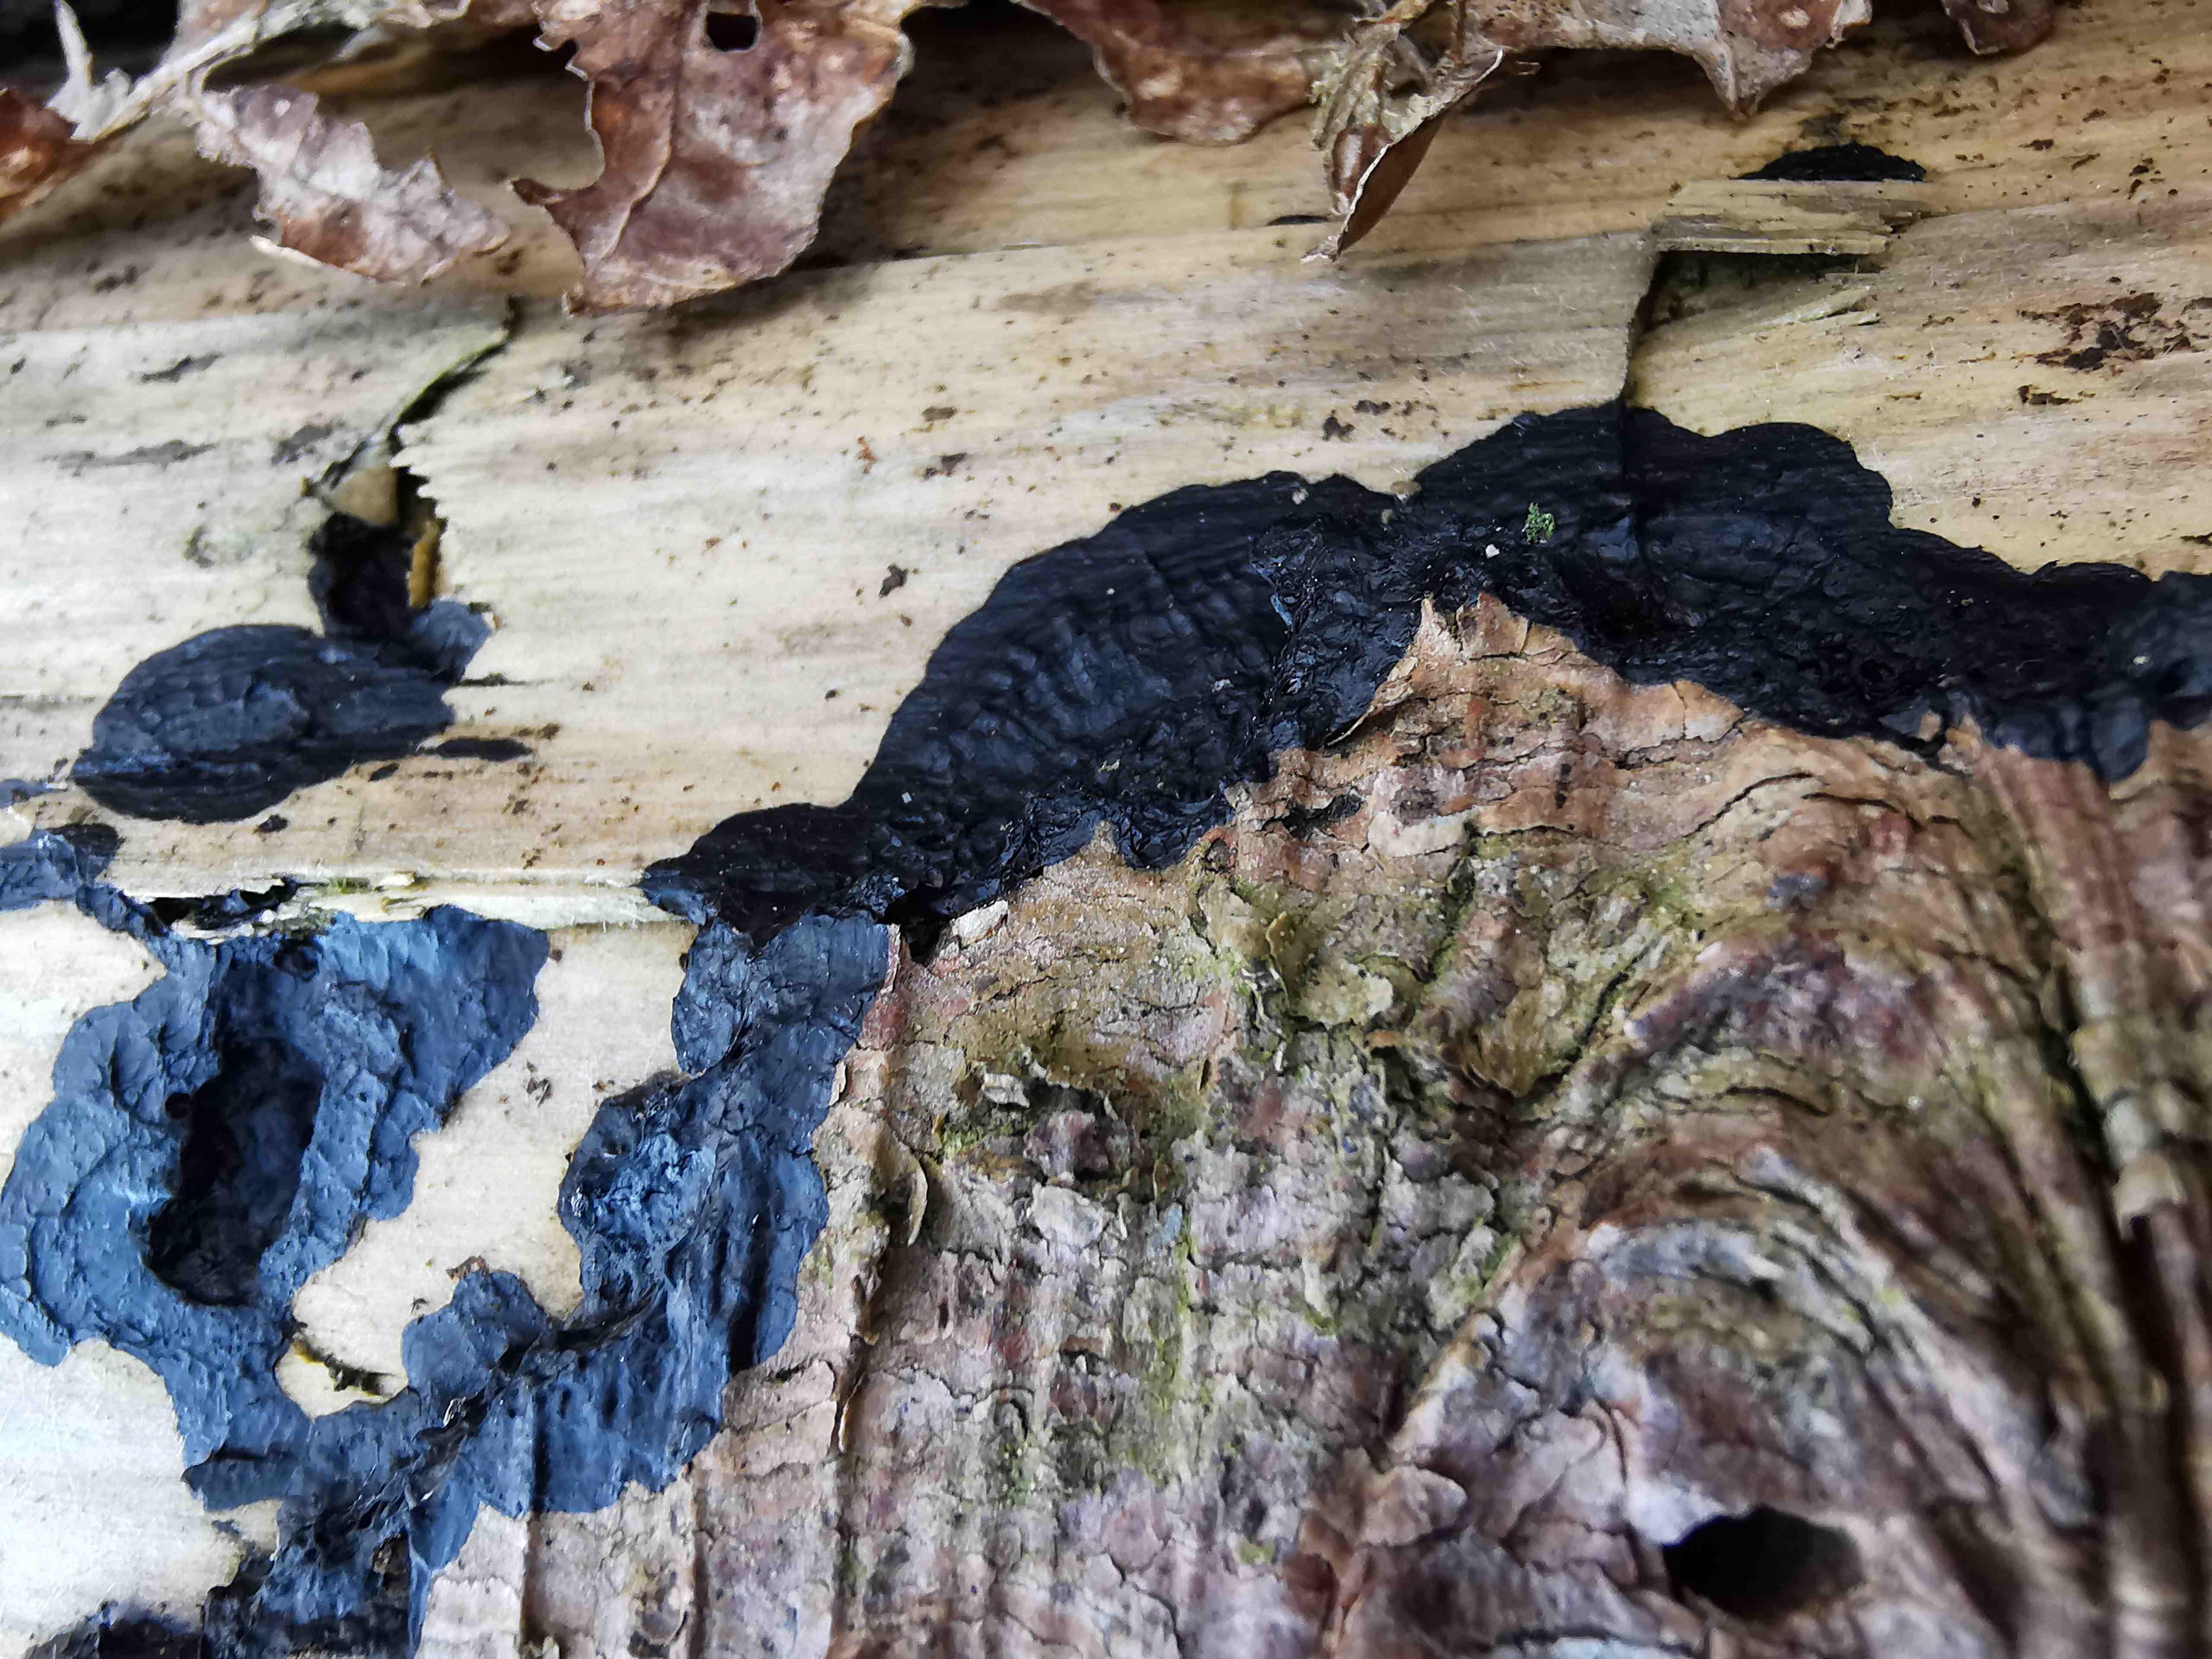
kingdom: Fungi
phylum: Basidiomycota
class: Agaricomycetes
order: Auriculariales
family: Auriculariaceae
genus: Exidia
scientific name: Exidia pithya
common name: gran-bævretop
